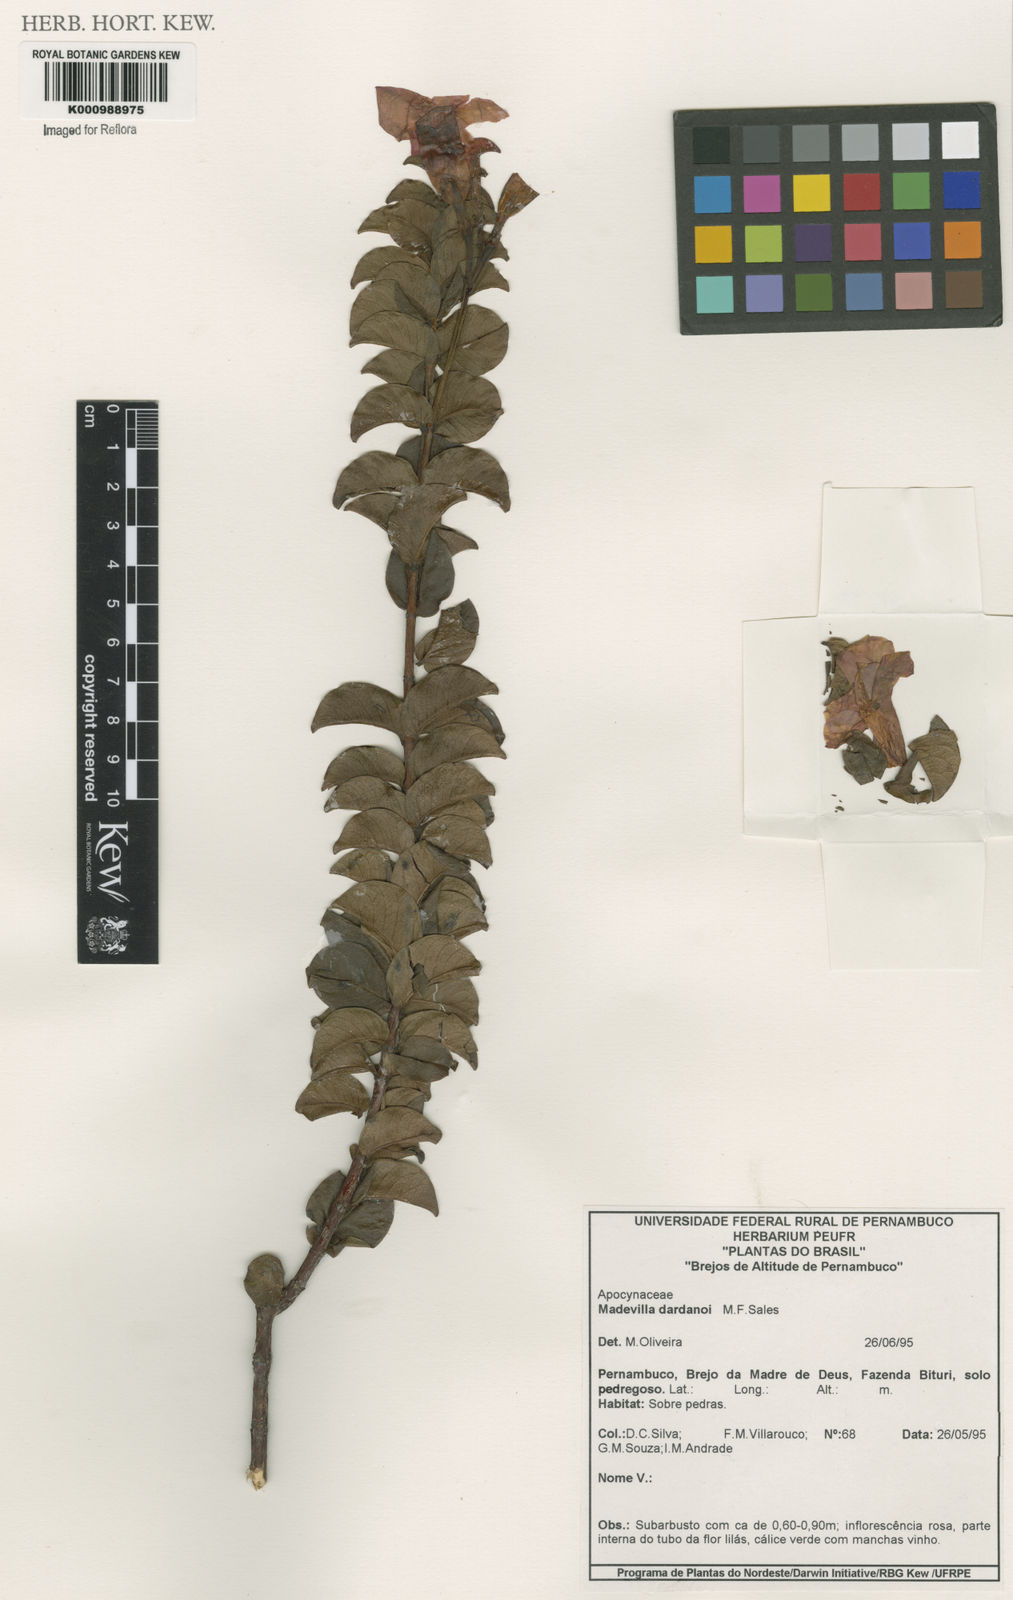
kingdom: Plantae
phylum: Tracheophyta
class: Magnoliopsida
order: Gentianales
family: Apocynaceae
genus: Mandevilla
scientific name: Mandevilla
